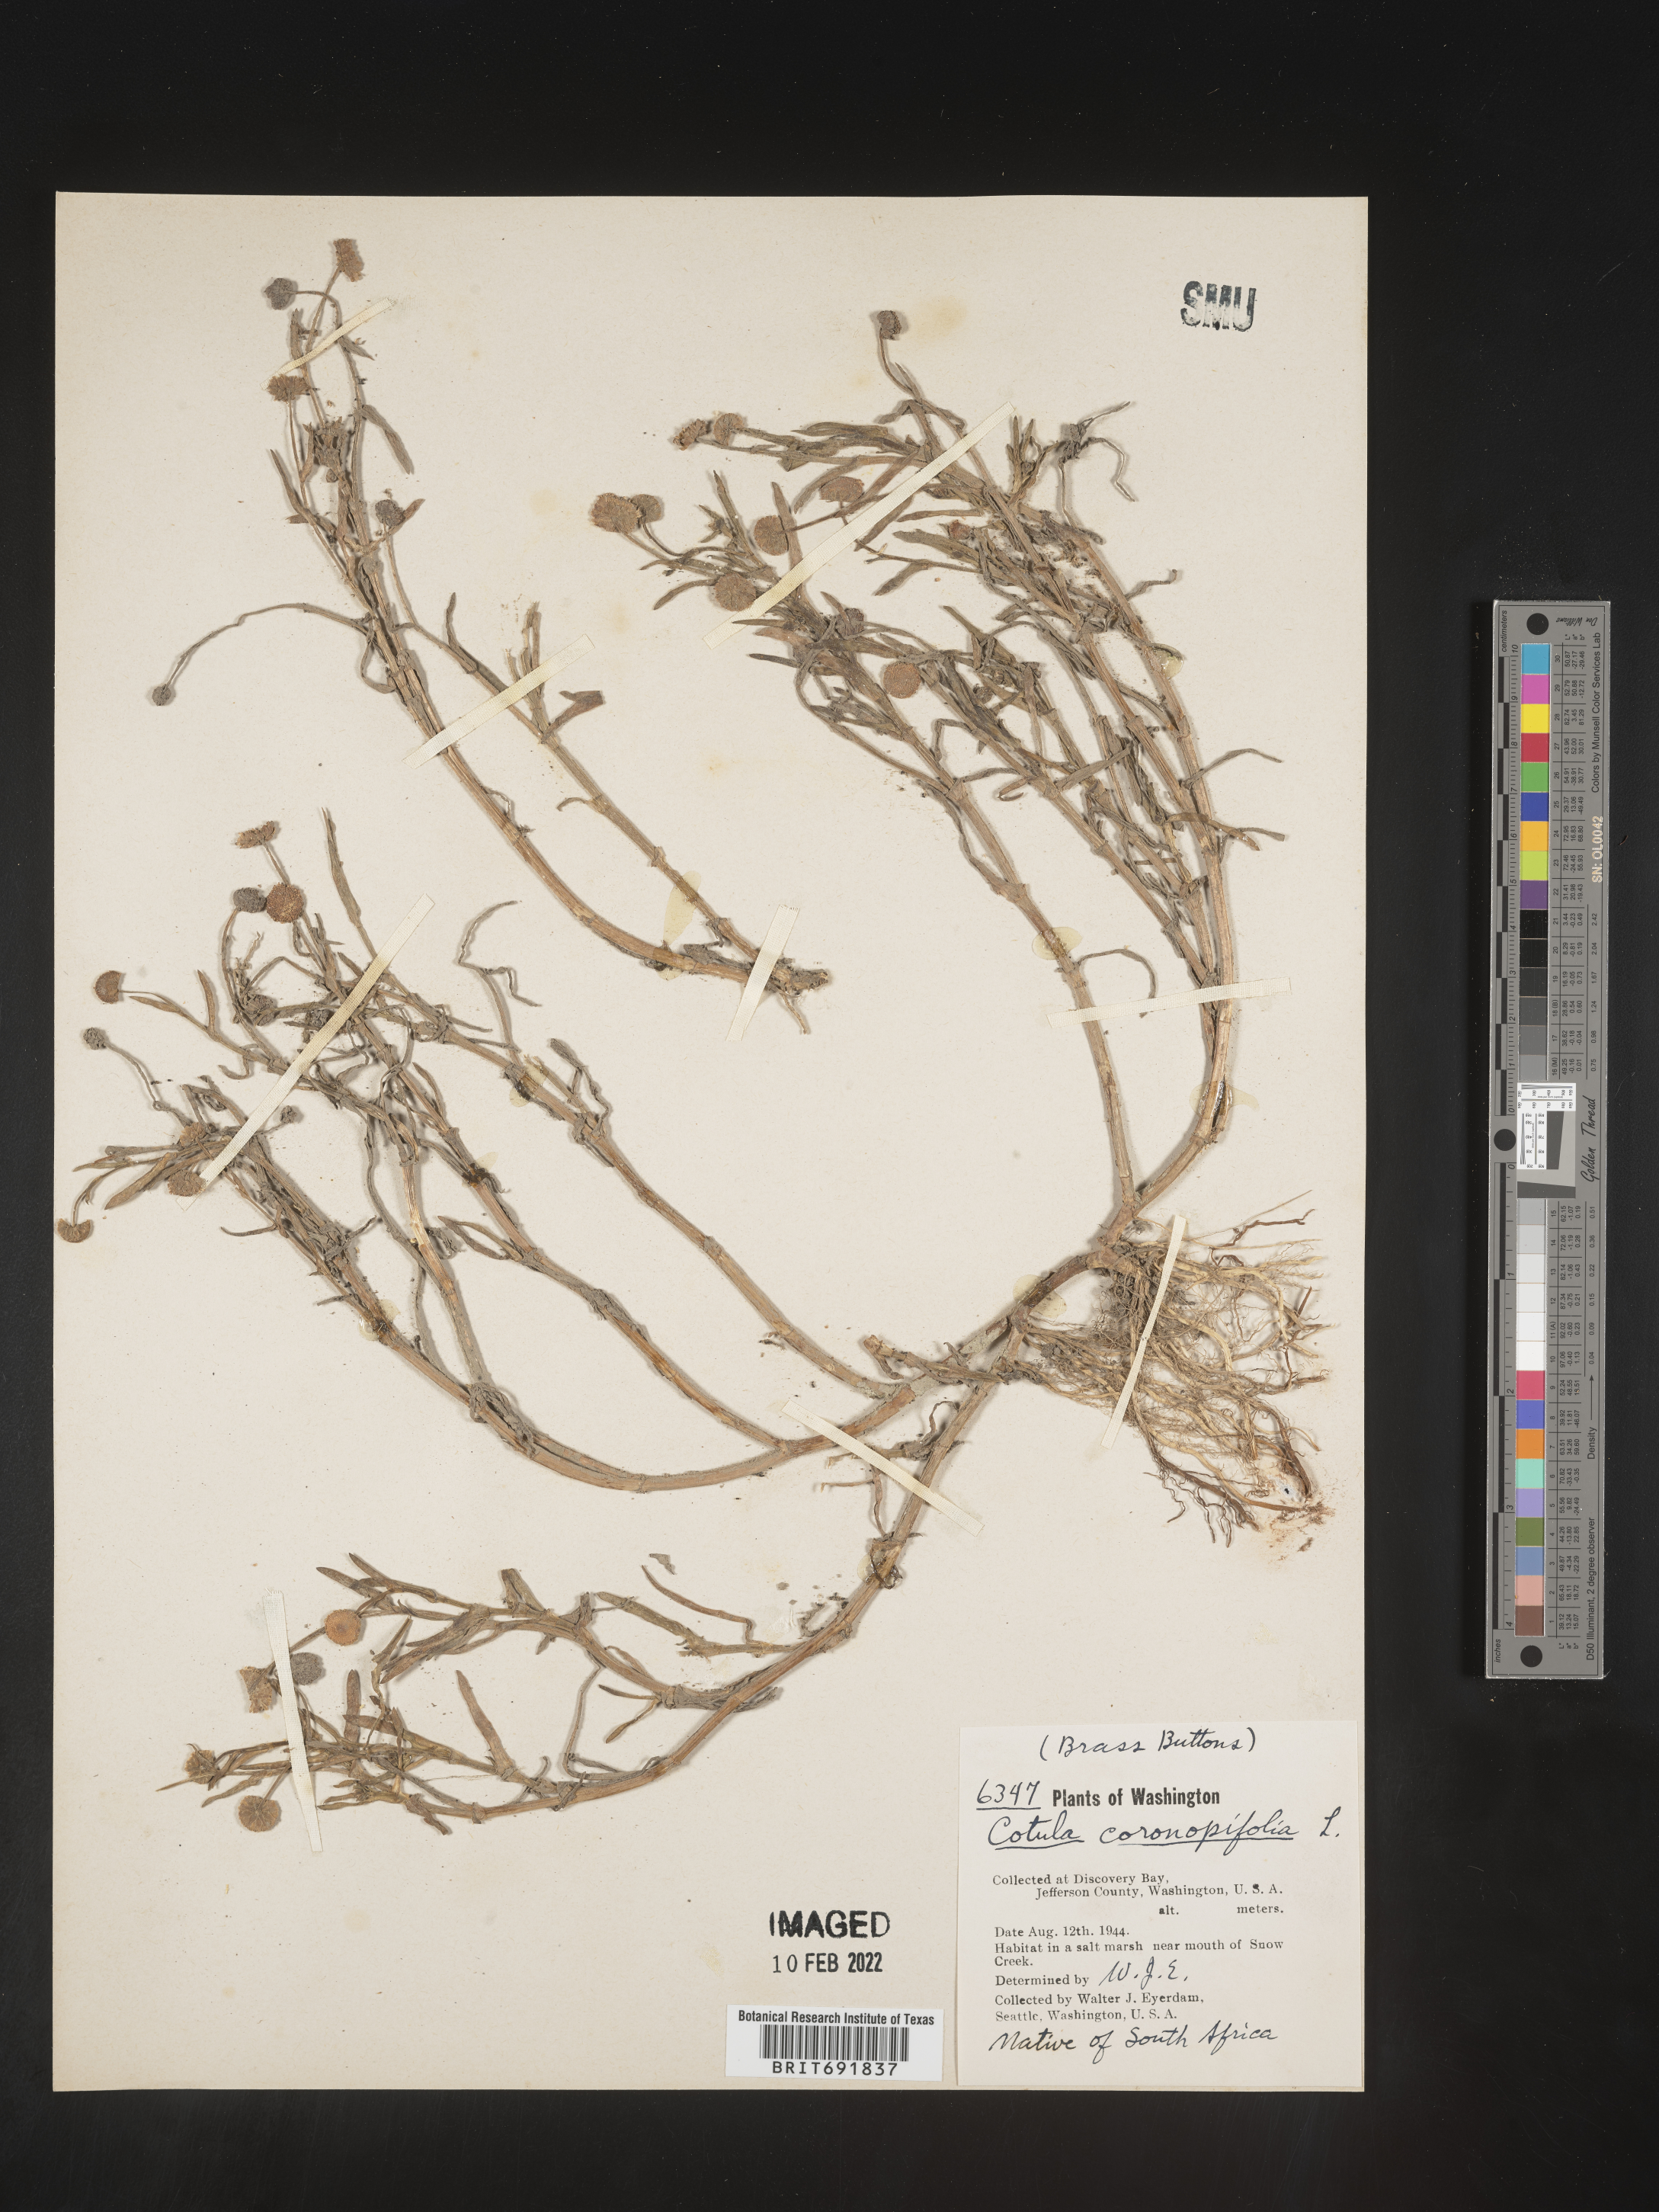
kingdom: Plantae
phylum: Tracheophyta
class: Magnoliopsida
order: Asterales
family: Asteraceae
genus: Cotula
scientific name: Cotula
